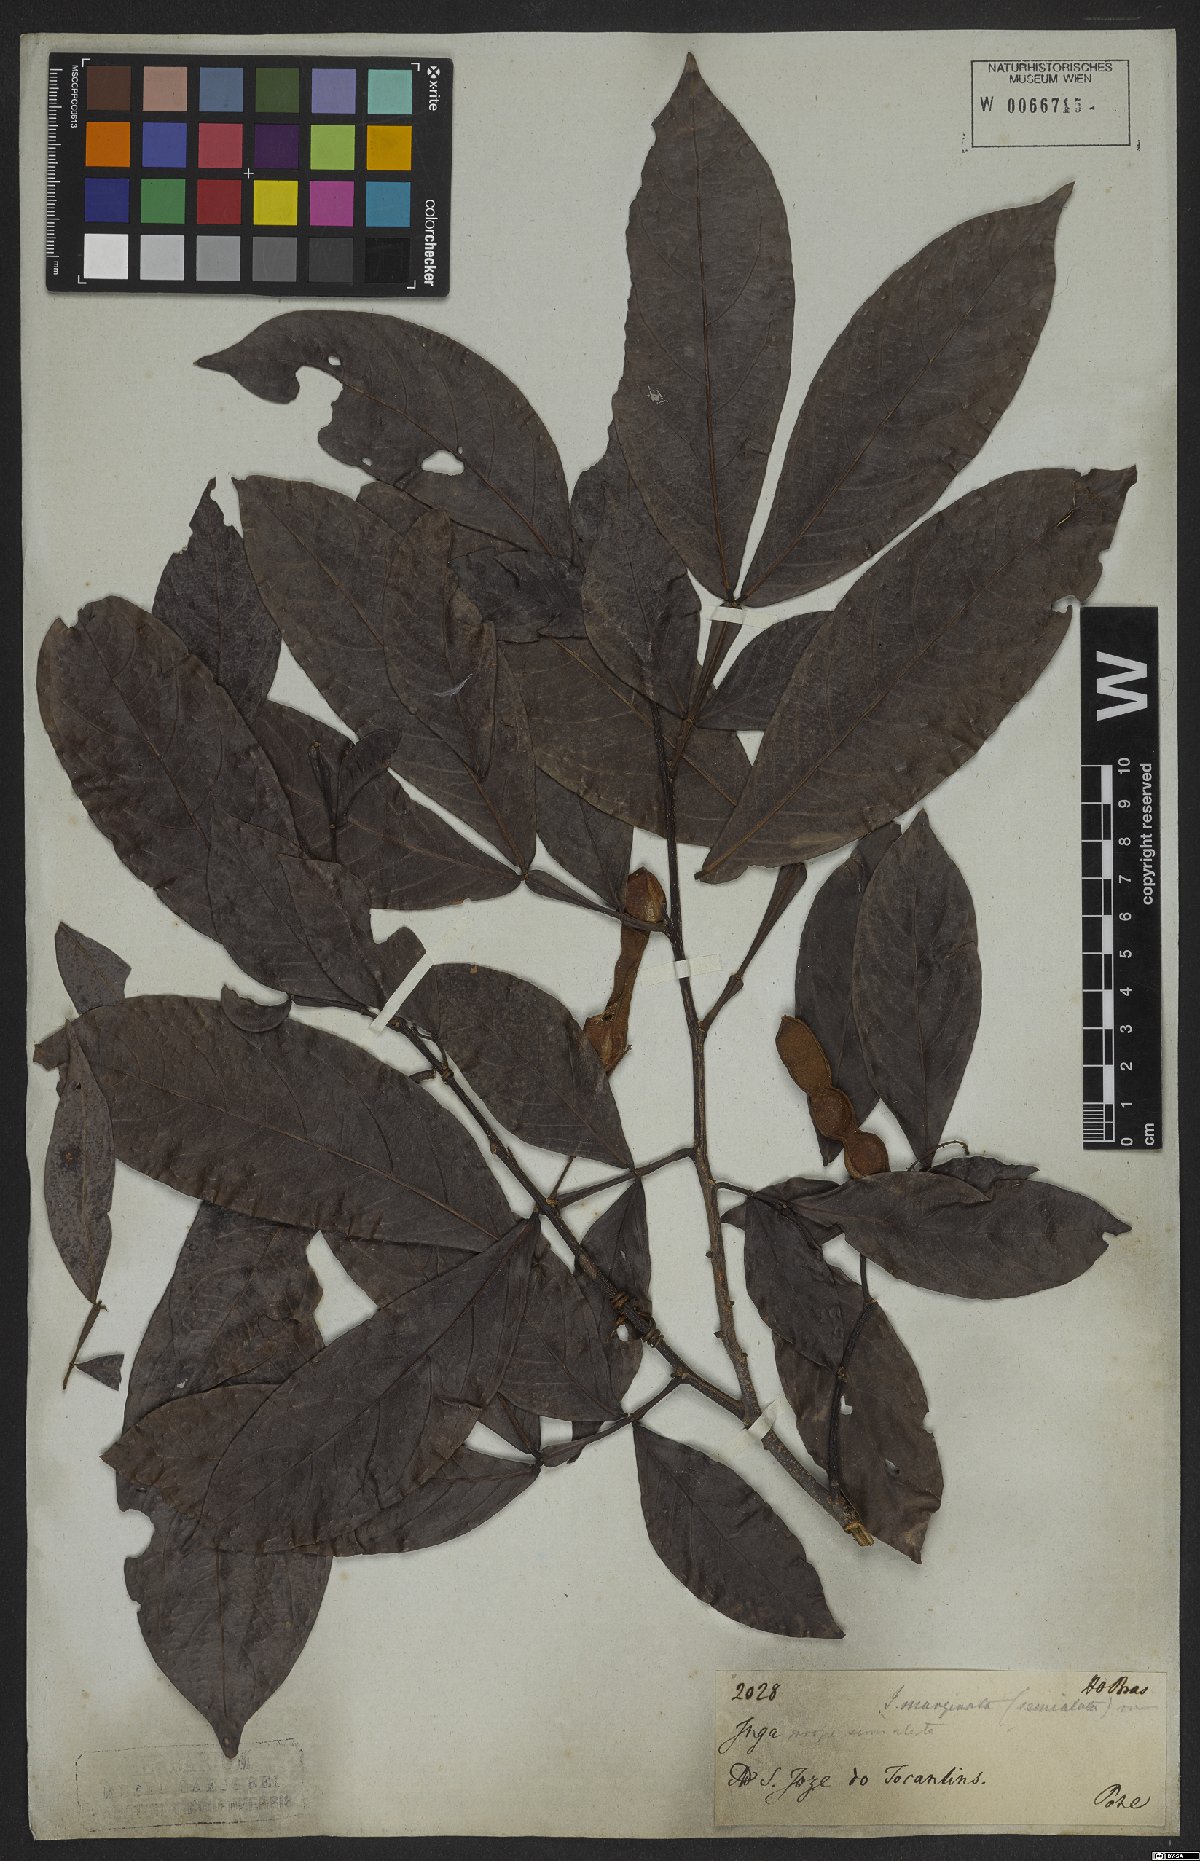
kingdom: Plantae
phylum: Tracheophyta
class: Magnoliopsida
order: Fabales
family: Fabaceae
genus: Inga
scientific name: Inga marginata
